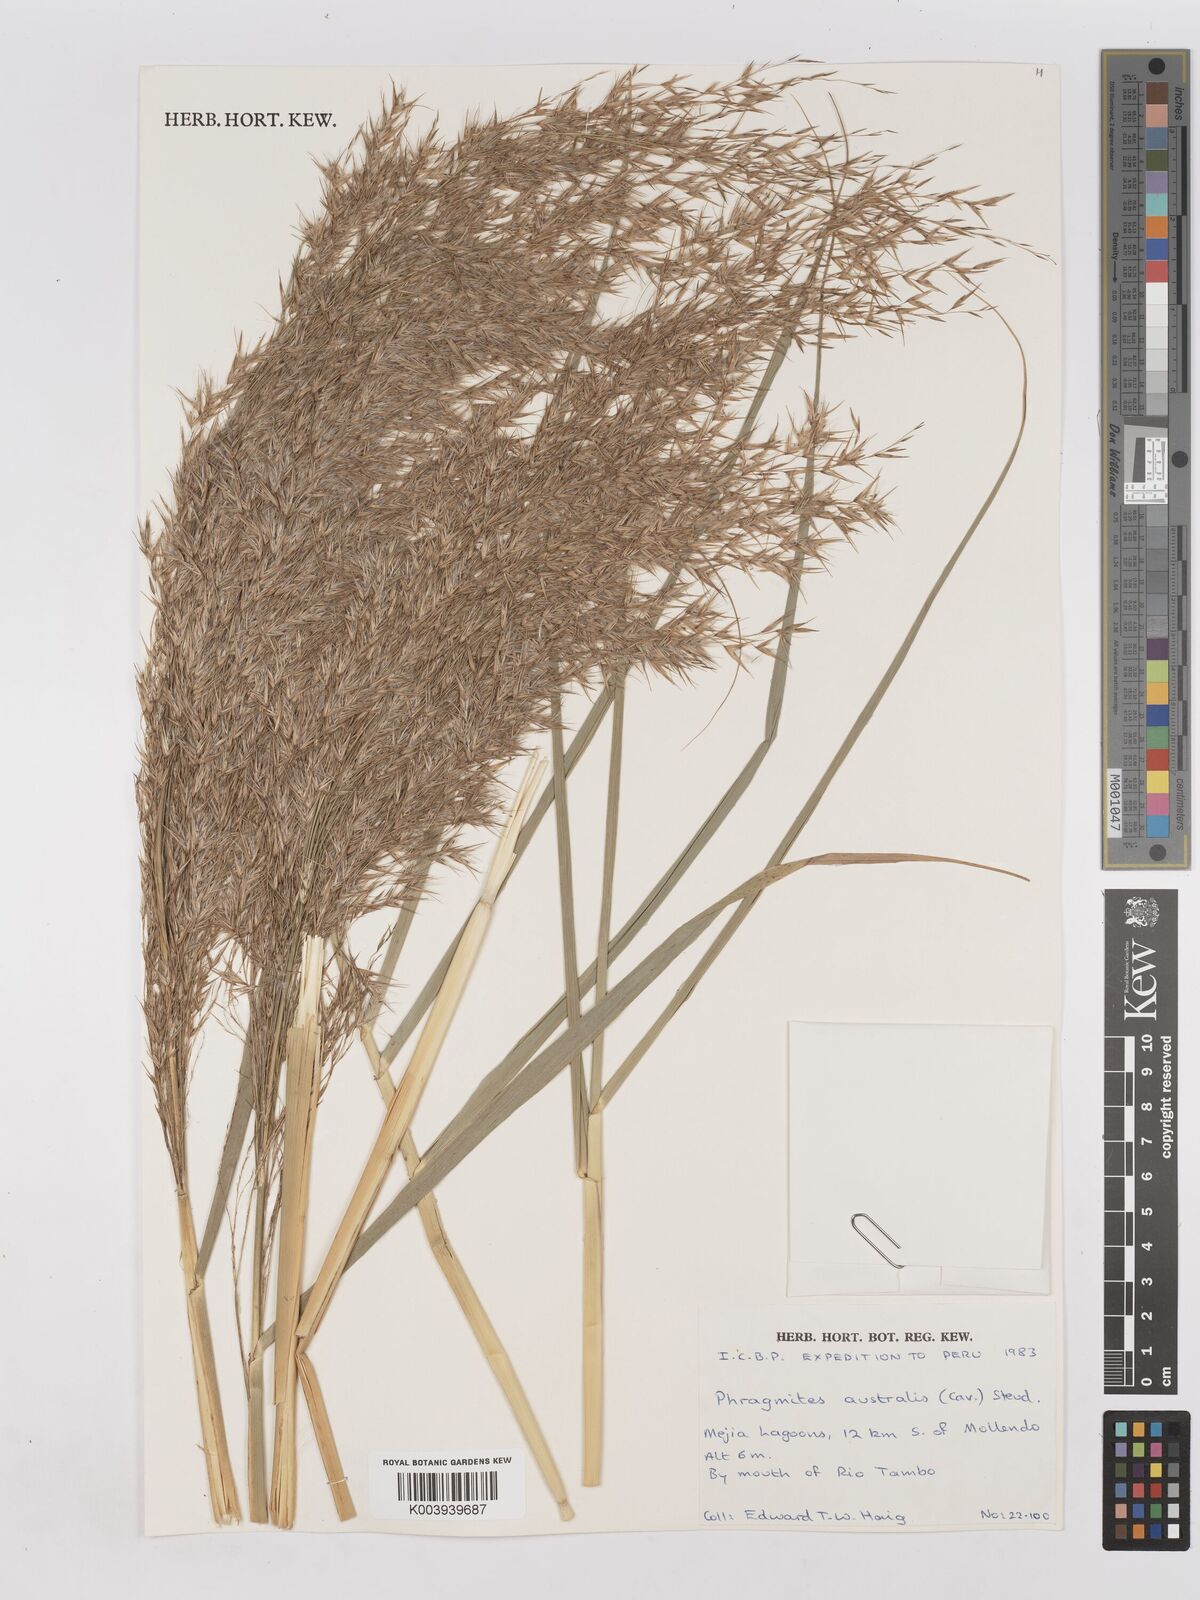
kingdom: Plantae
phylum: Tracheophyta
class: Liliopsida
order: Poales
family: Poaceae
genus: Phragmites
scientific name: Phragmites australis
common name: Common reed
